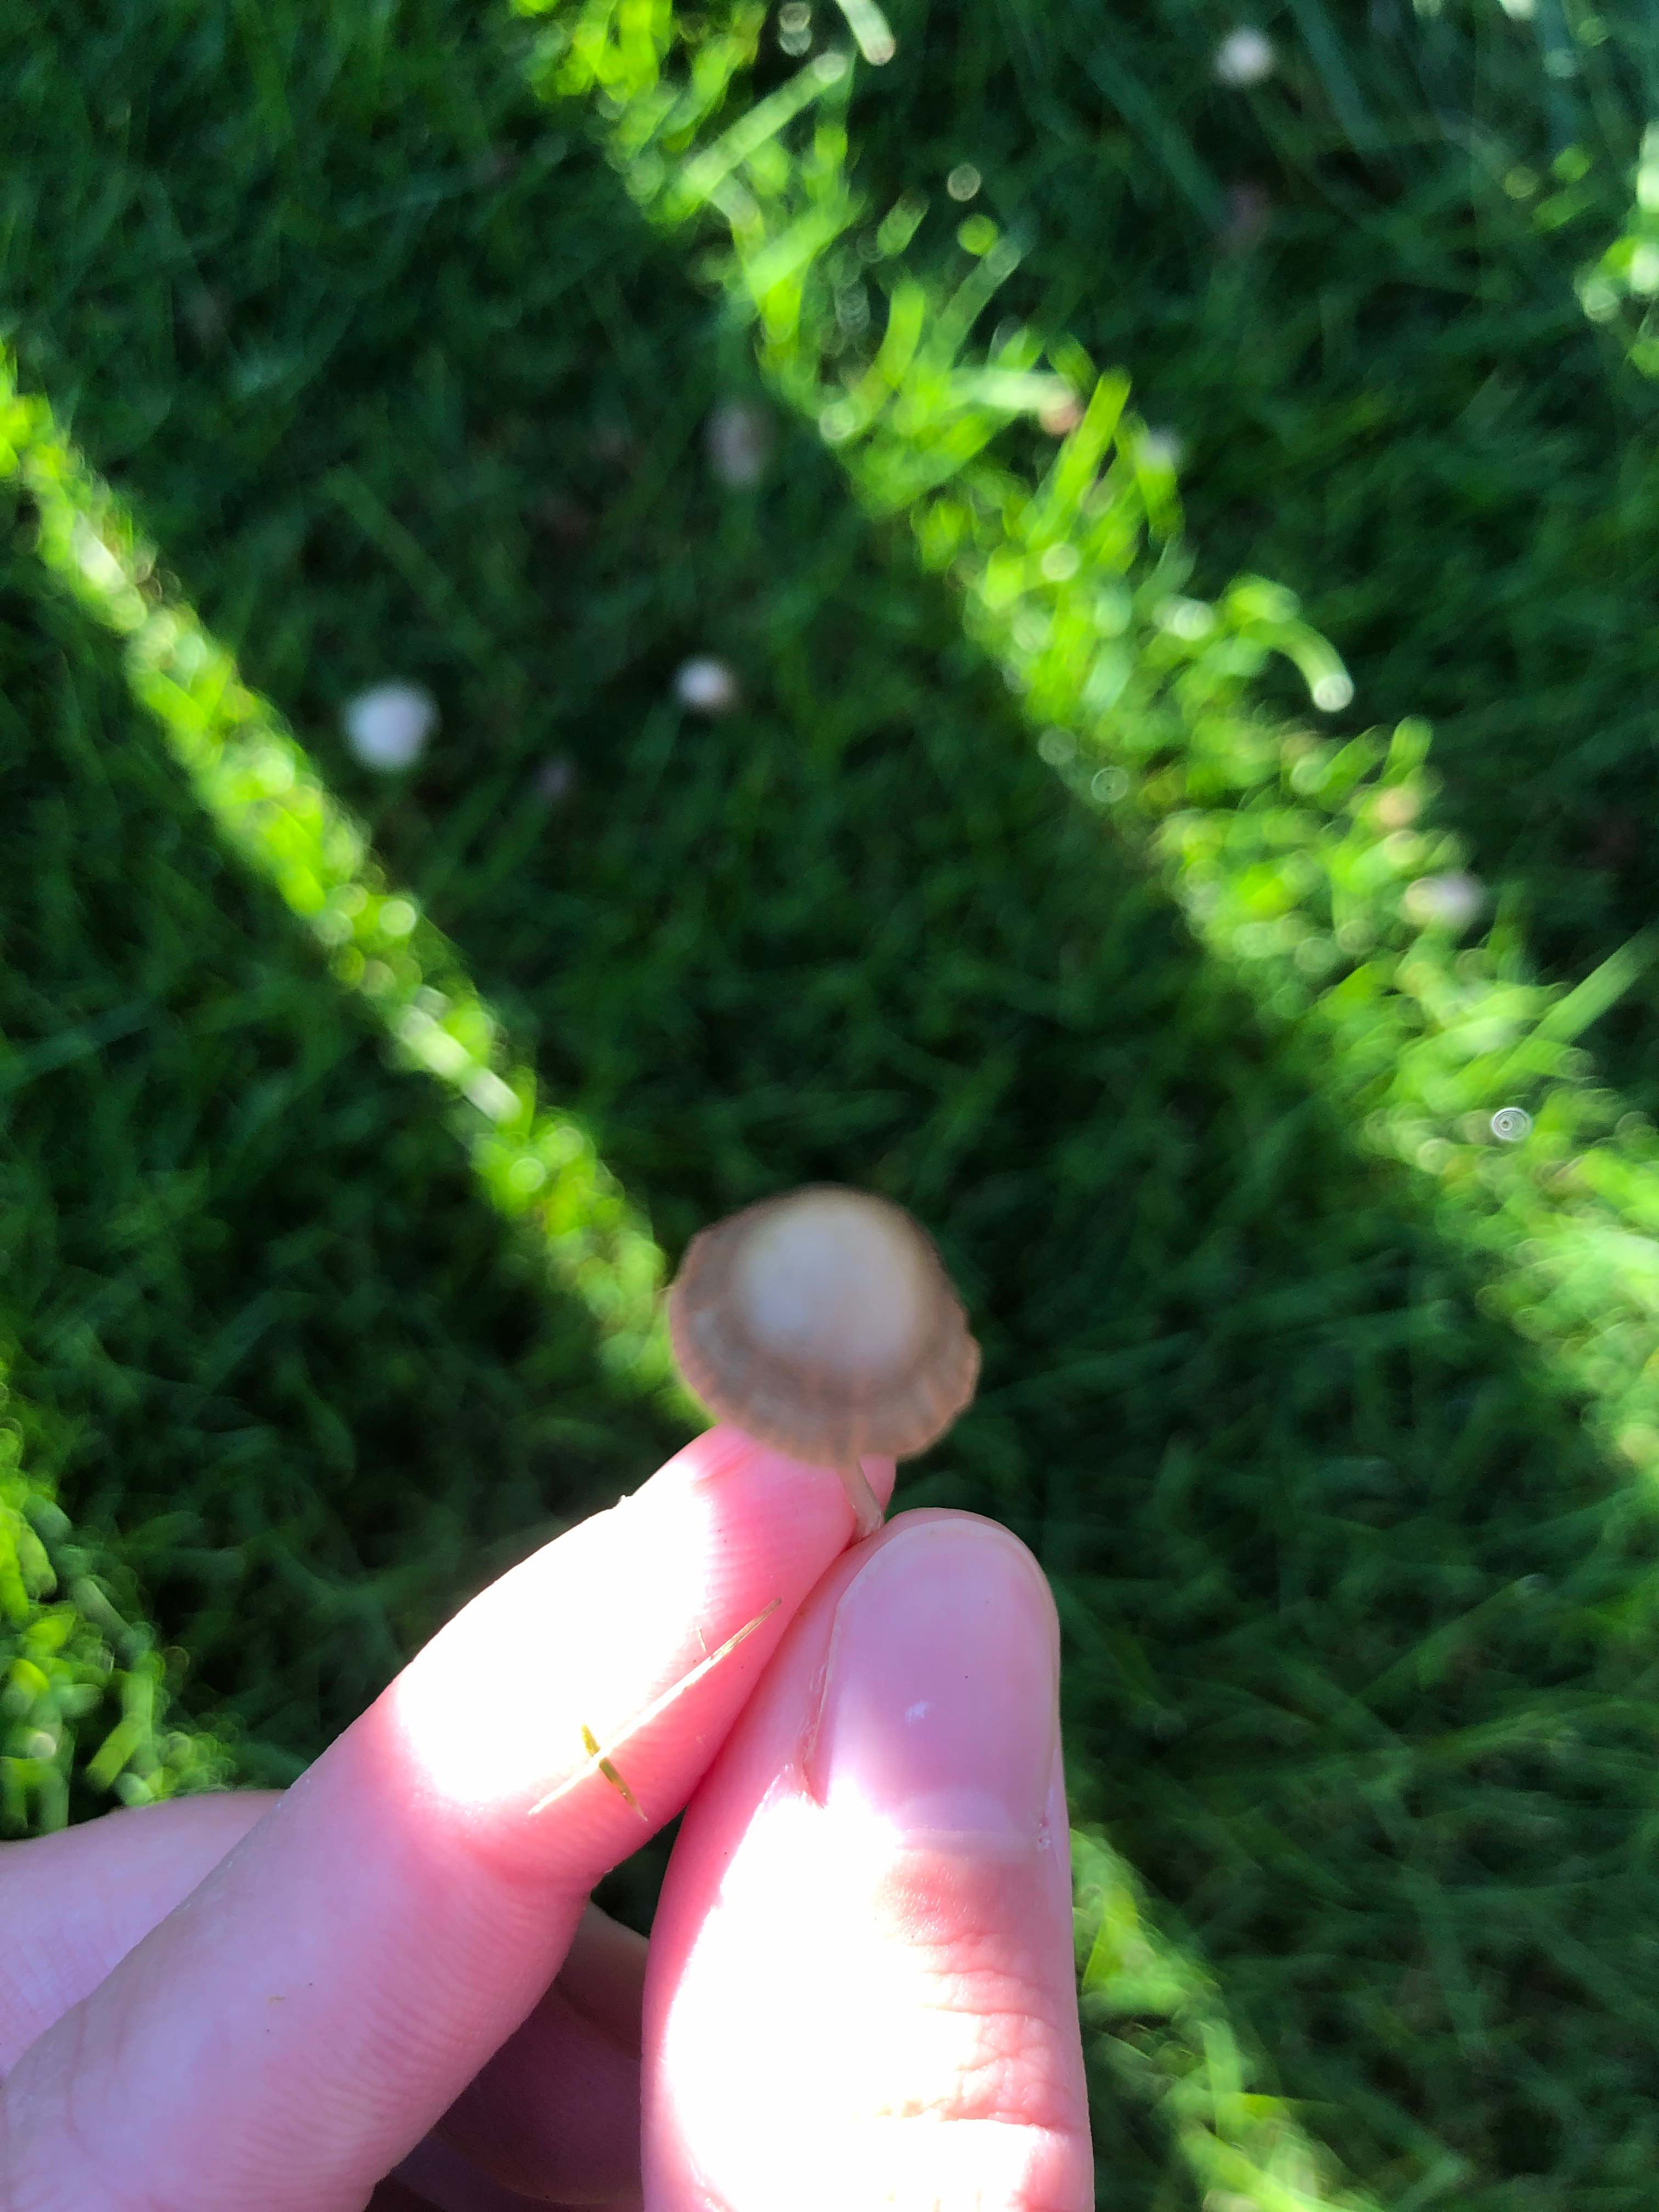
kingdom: Fungi
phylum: Basidiomycota
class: Agaricomycetes
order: Agaricales
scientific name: Agaricales
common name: champignonordenen
